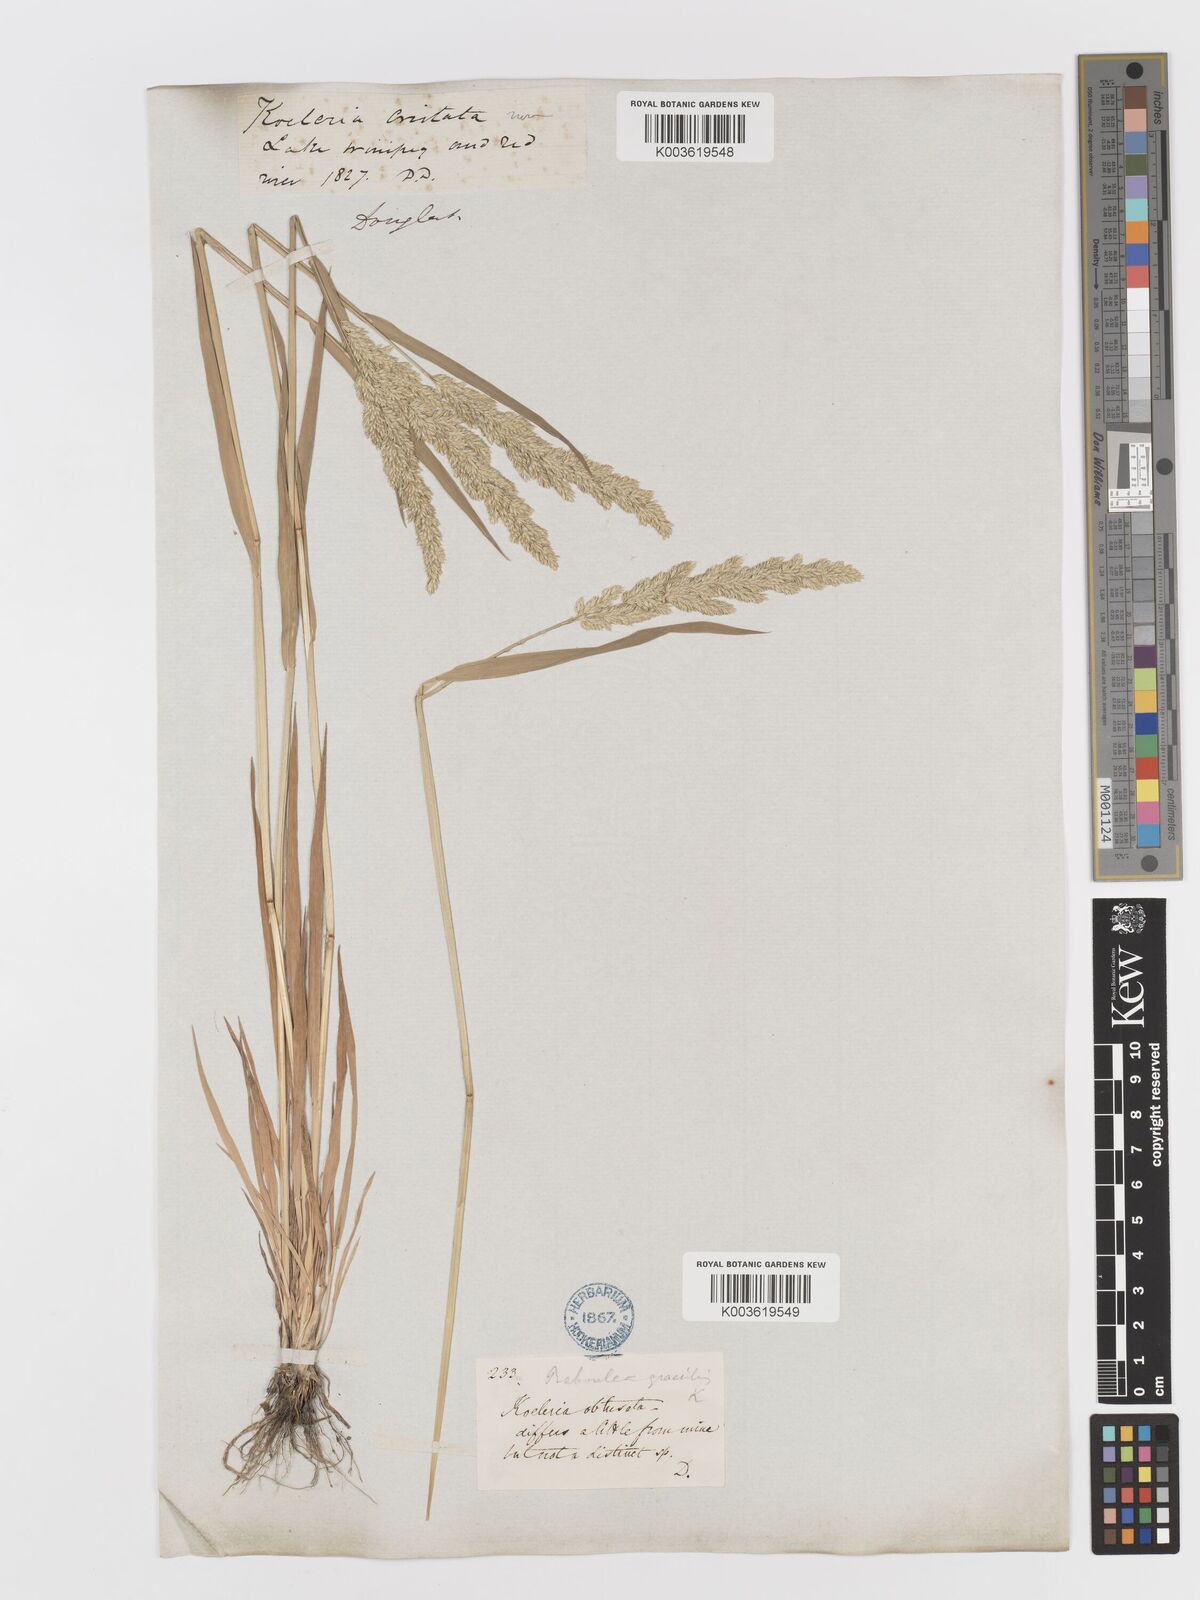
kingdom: Plantae
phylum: Tracheophyta
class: Liliopsida
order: Poales
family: Poaceae
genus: Sphenopholis
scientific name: Sphenopholis obtusata
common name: Prairie grass
